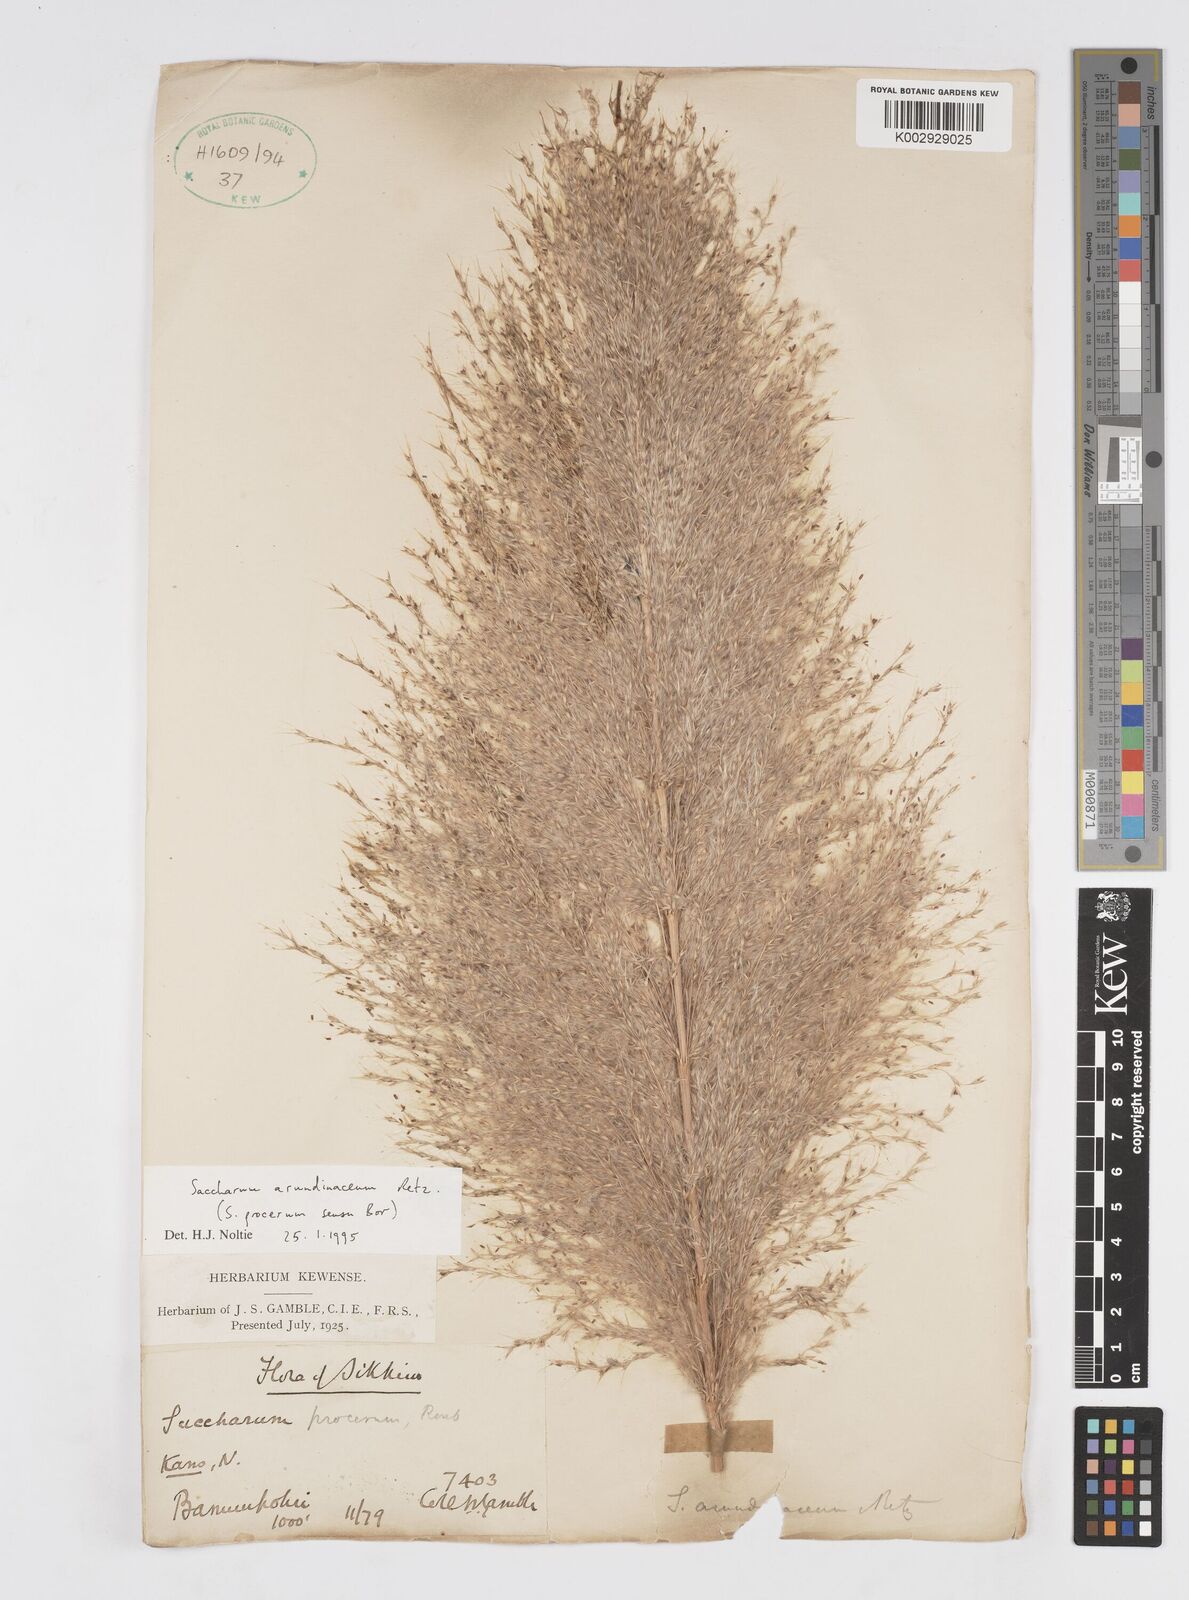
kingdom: Plantae
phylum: Tracheophyta
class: Liliopsida
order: Poales
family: Poaceae
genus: Tripidium
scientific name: Tripidium arundinaceum
